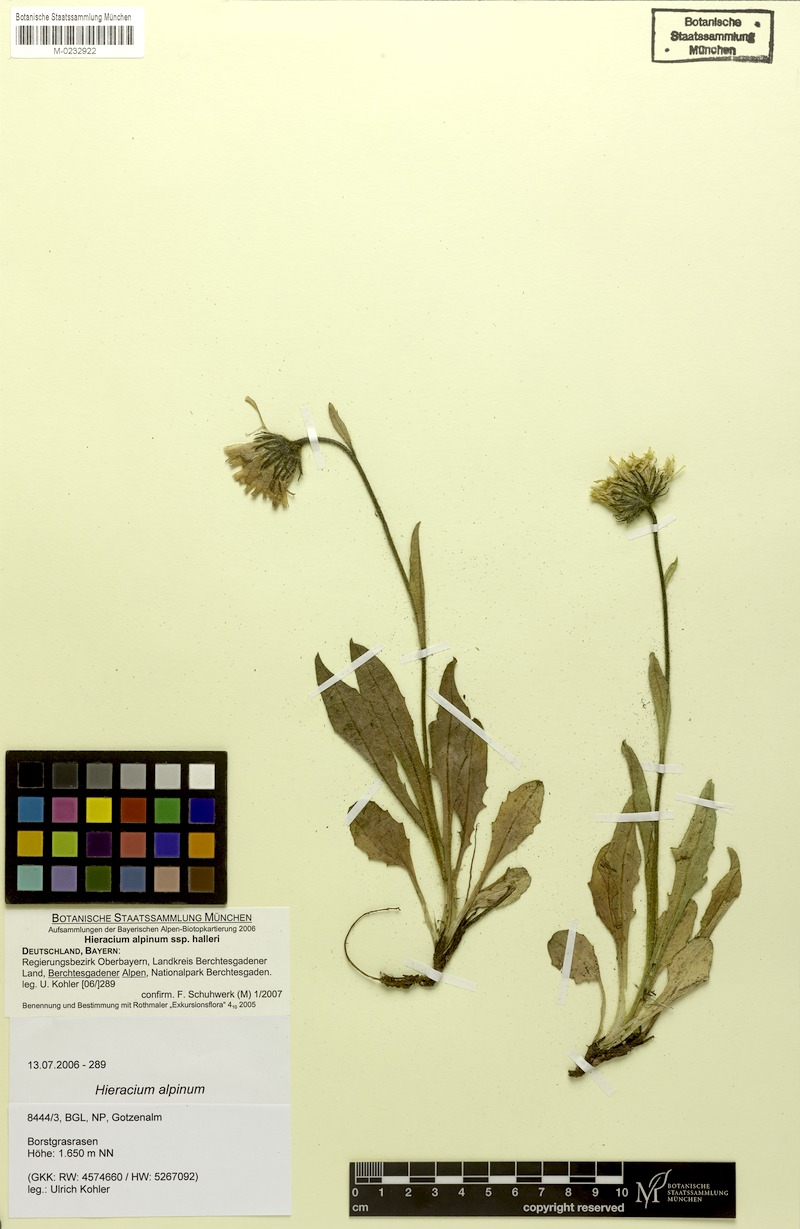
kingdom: Plantae
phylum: Tracheophyta
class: Magnoliopsida
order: Asterales
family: Asteraceae
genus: Hieracium
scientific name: Hieracium alpinum
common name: Alpine hawkweed
